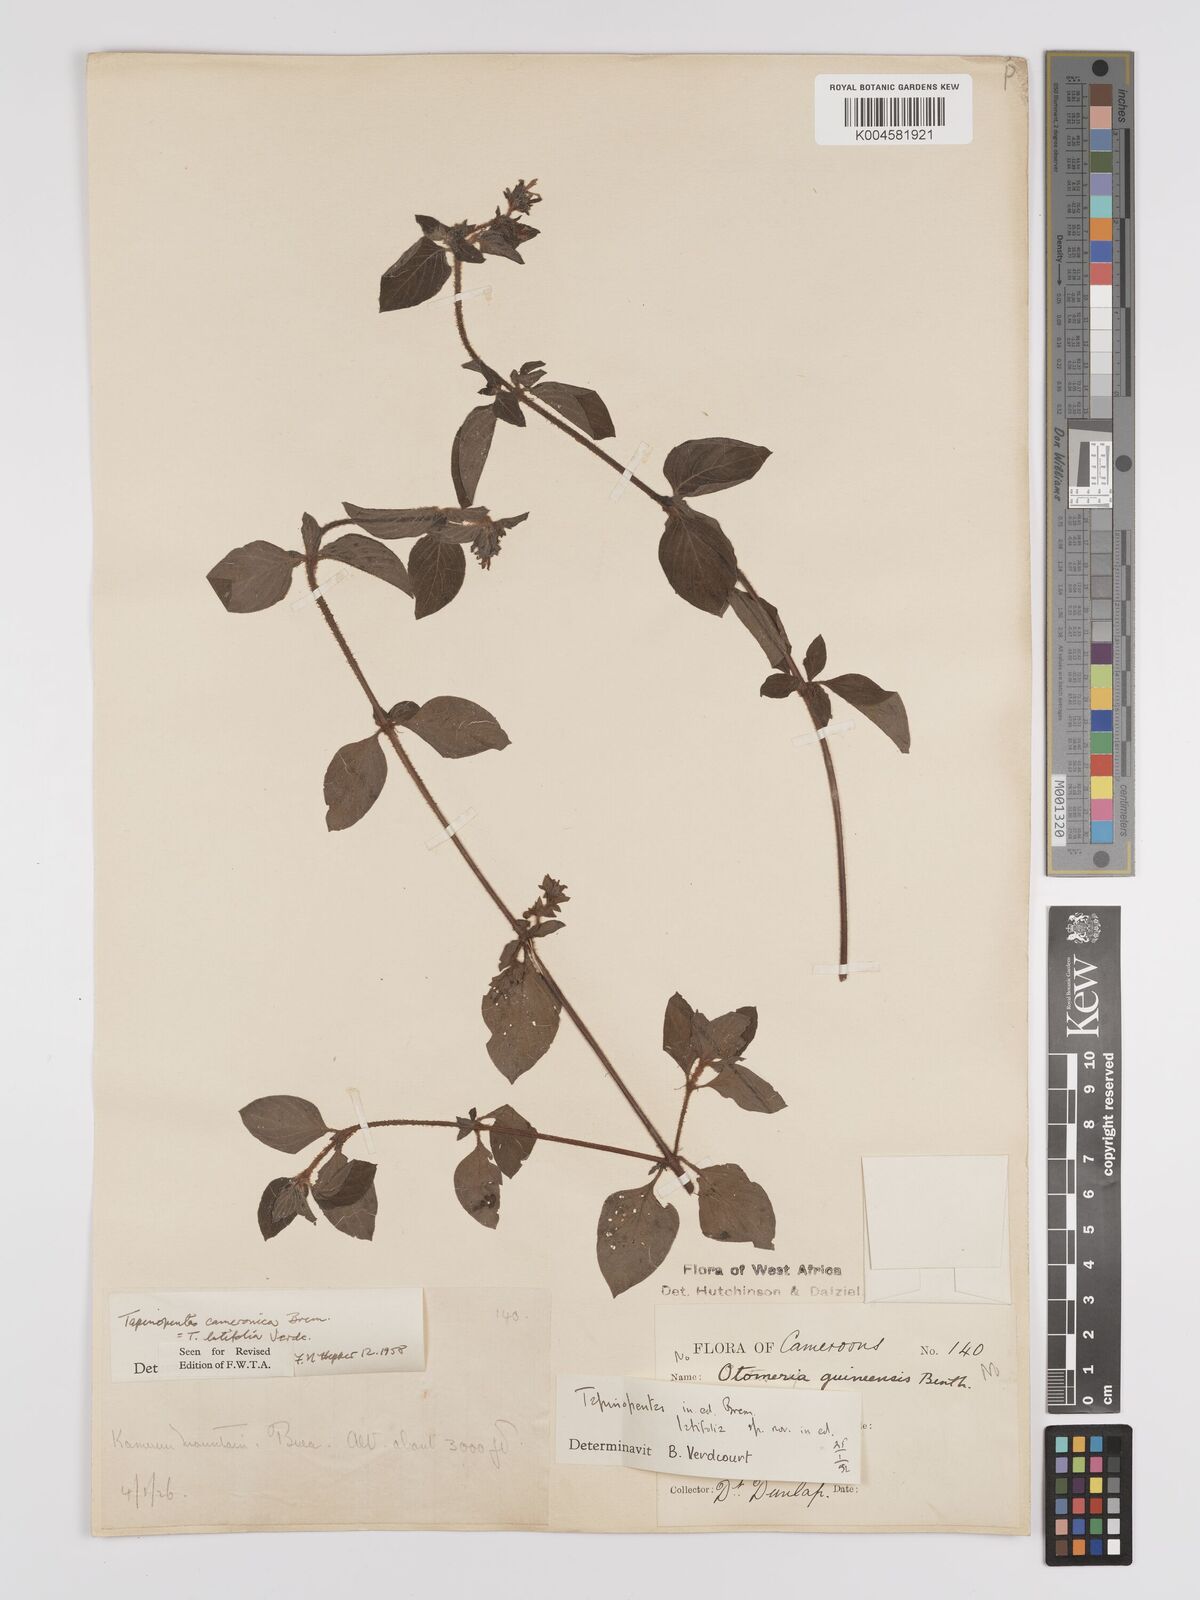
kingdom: Plantae
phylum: Tracheophyta
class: Magnoliopsida
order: Gentianales
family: Rubiaceae
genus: Otomeria
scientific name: Otomeria cameronica
